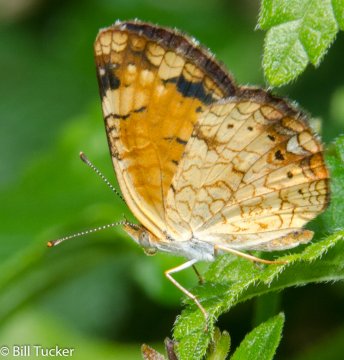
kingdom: Animalia
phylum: Arthropoda
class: Insecta
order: Lepidoptera
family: Nymphalidae
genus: Phyciodes
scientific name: Phyciodes tharos
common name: Pearl Crescent
